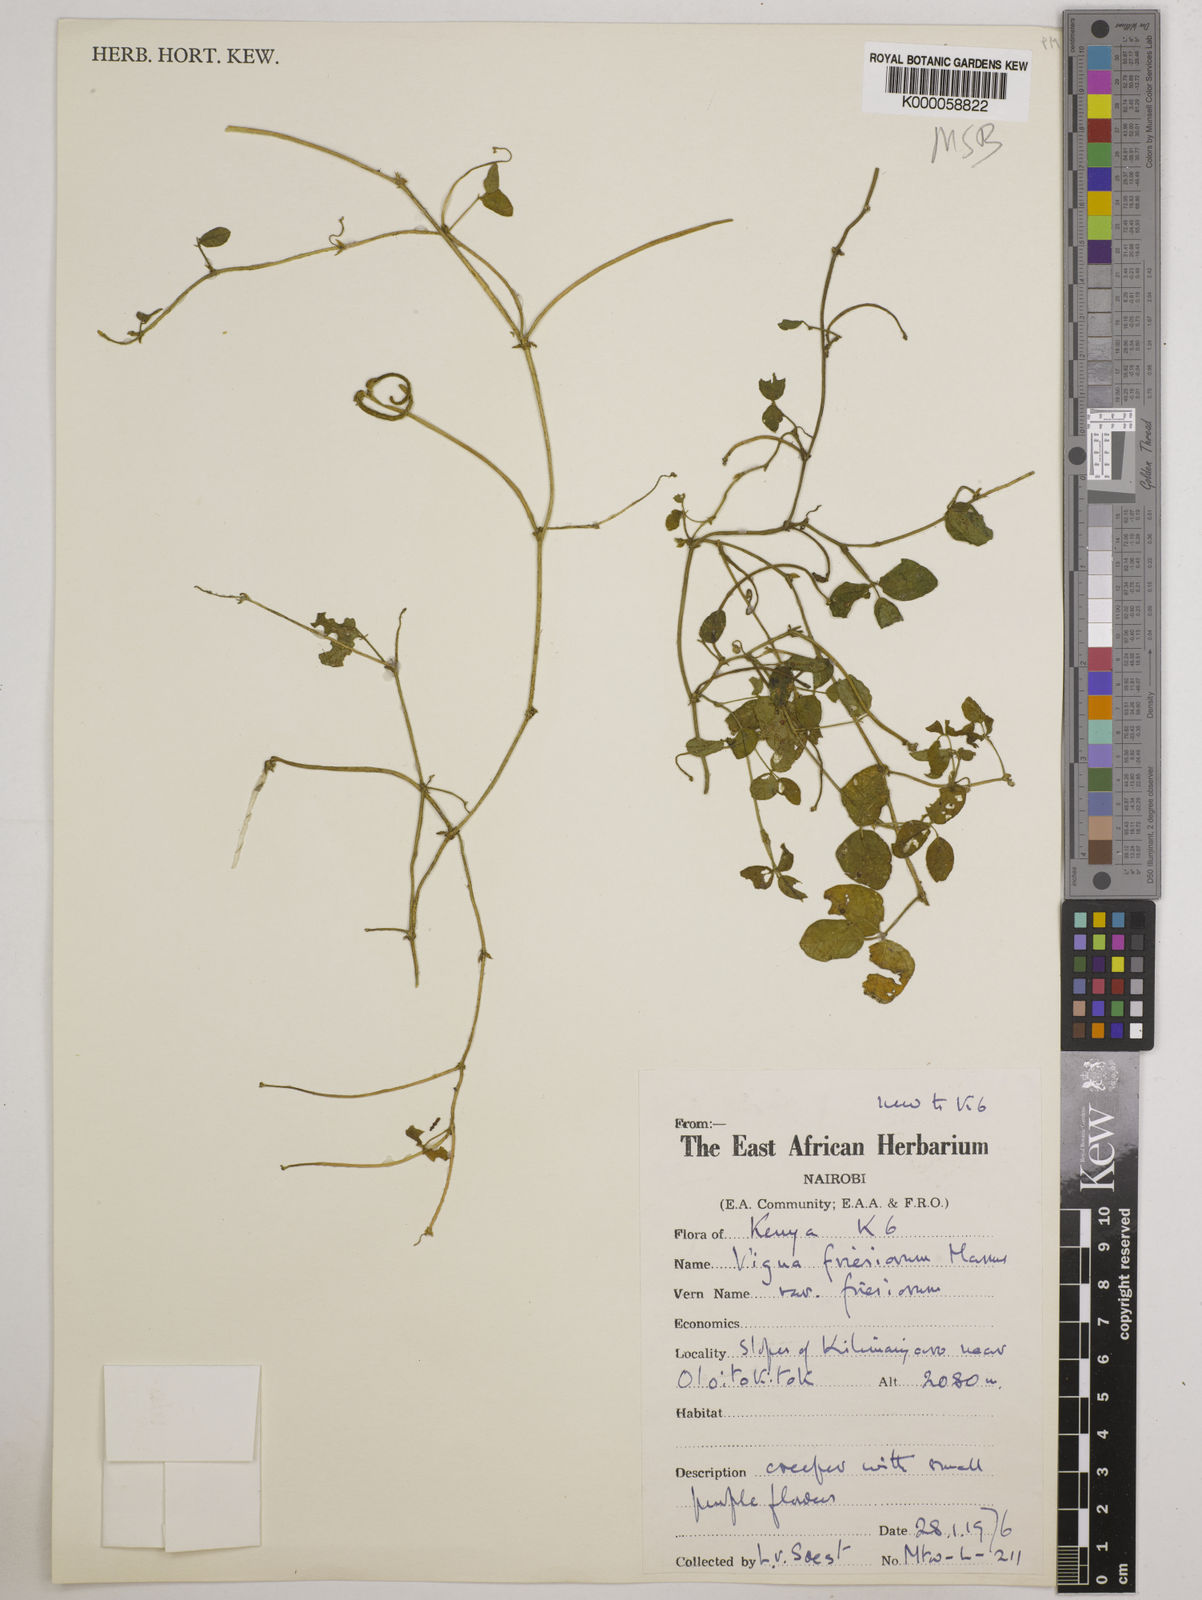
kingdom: Plantae
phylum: Tracheophyta
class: Magnoliopsida
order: Fabales
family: Fabaceae
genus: Vigna
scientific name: Vigna friesiorum
